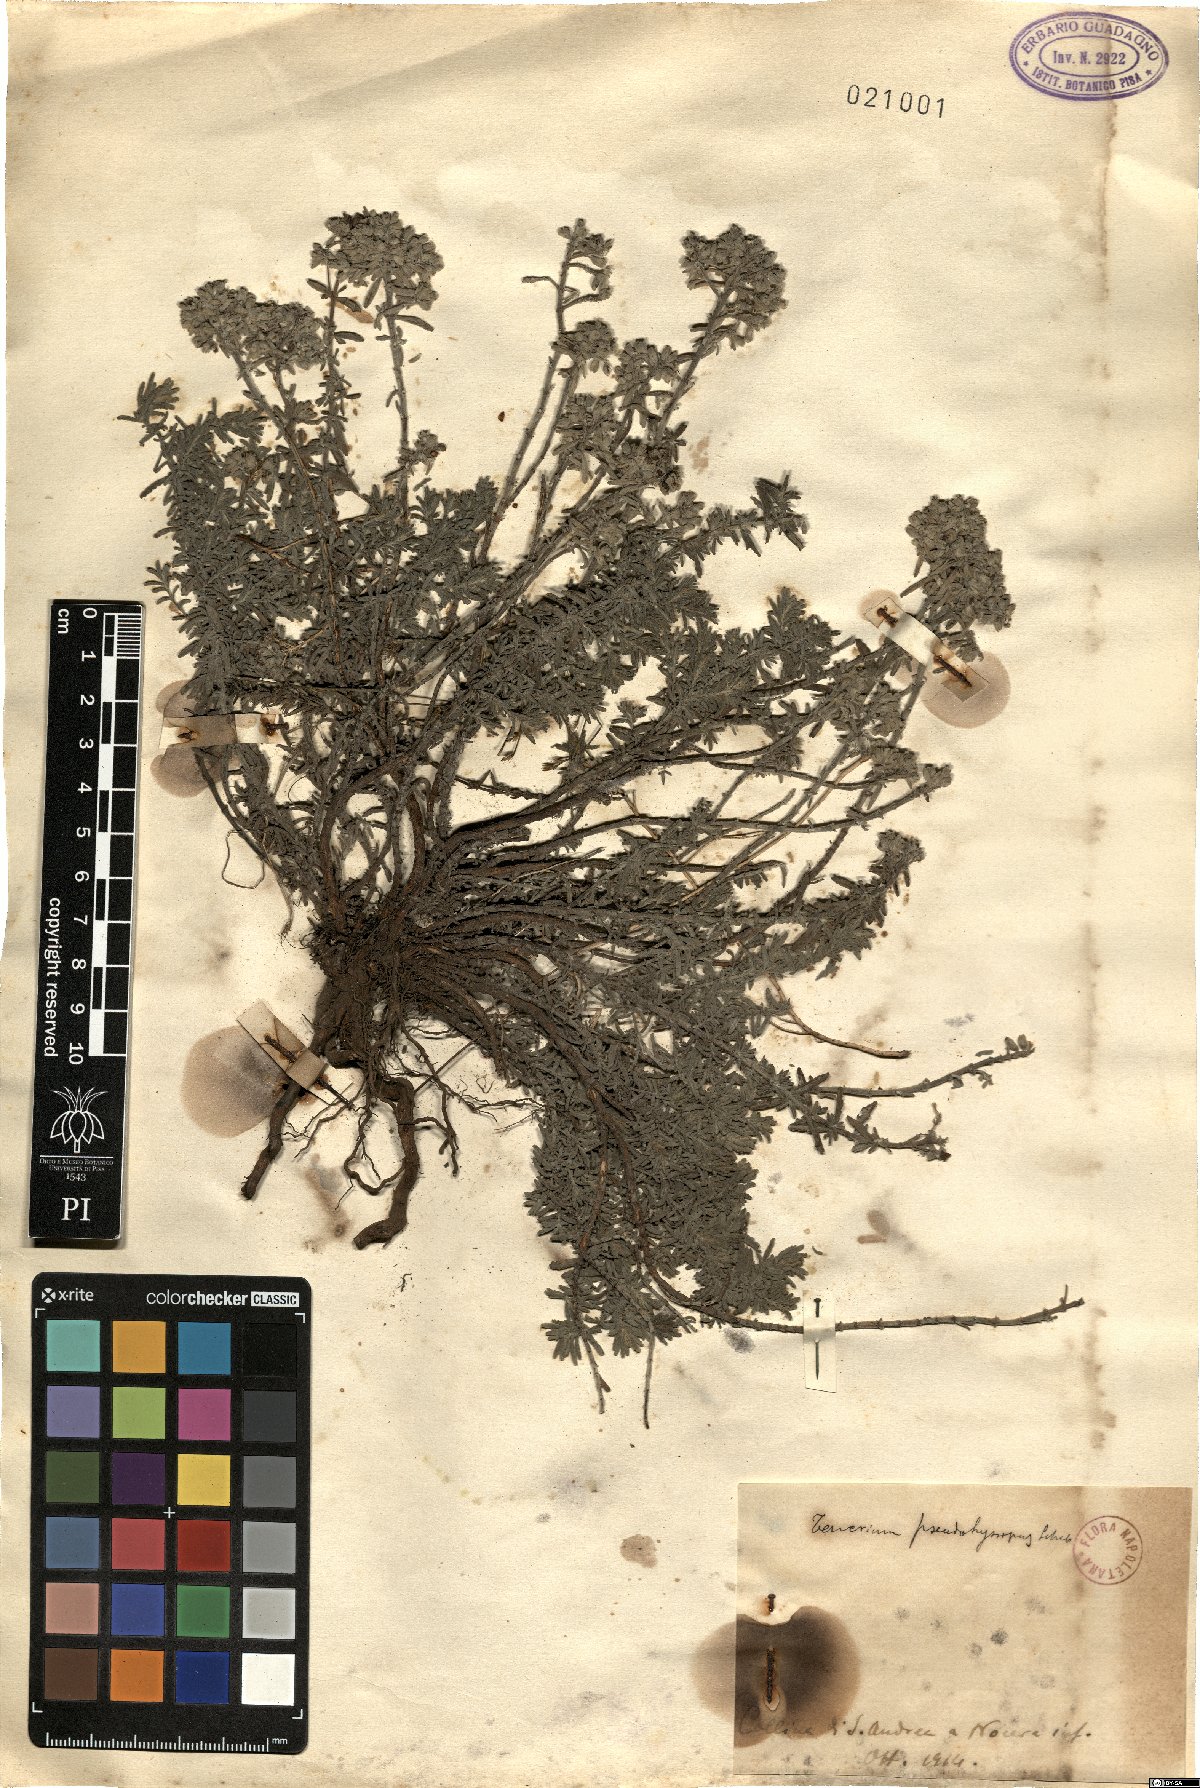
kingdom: Plantae
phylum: Tracheophyta
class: Magnoliopsida
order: Lamiales
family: Lamiaceae
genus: Teucrium
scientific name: Teucrium polium
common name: Poley
